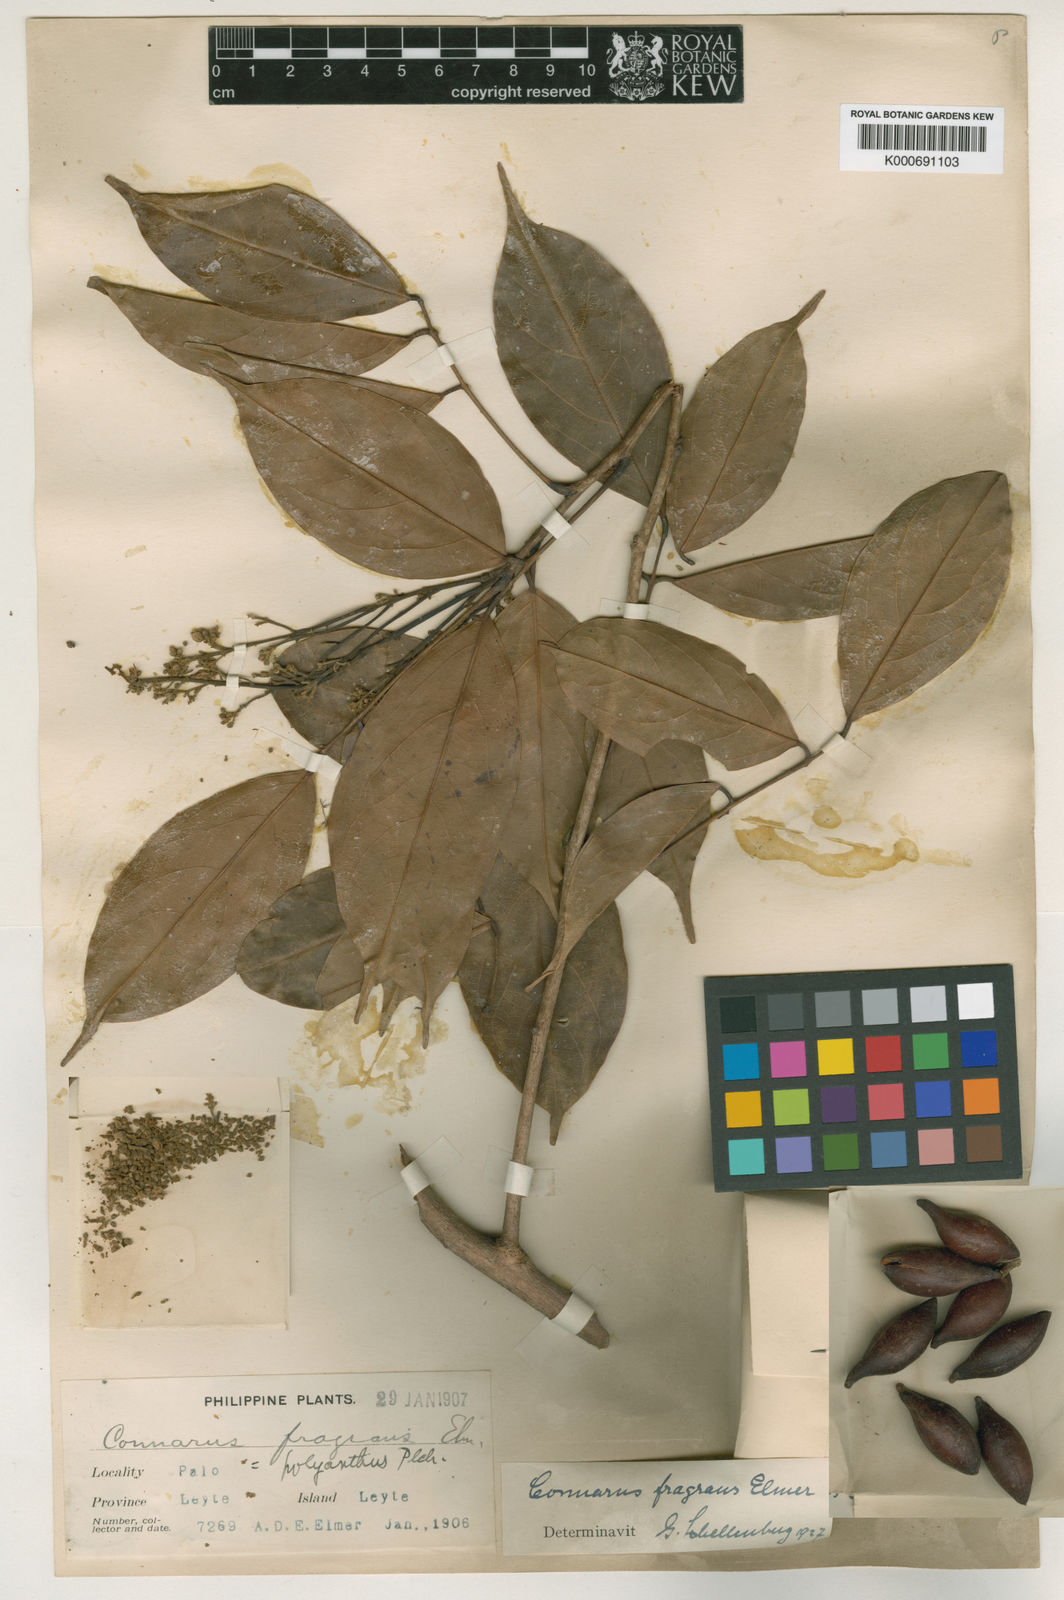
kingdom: Plantae
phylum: Tracheophyta
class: Magnoliopsida
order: Oxalidales
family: Connaraceae
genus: Connarus
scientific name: Connarus semidecandrus
